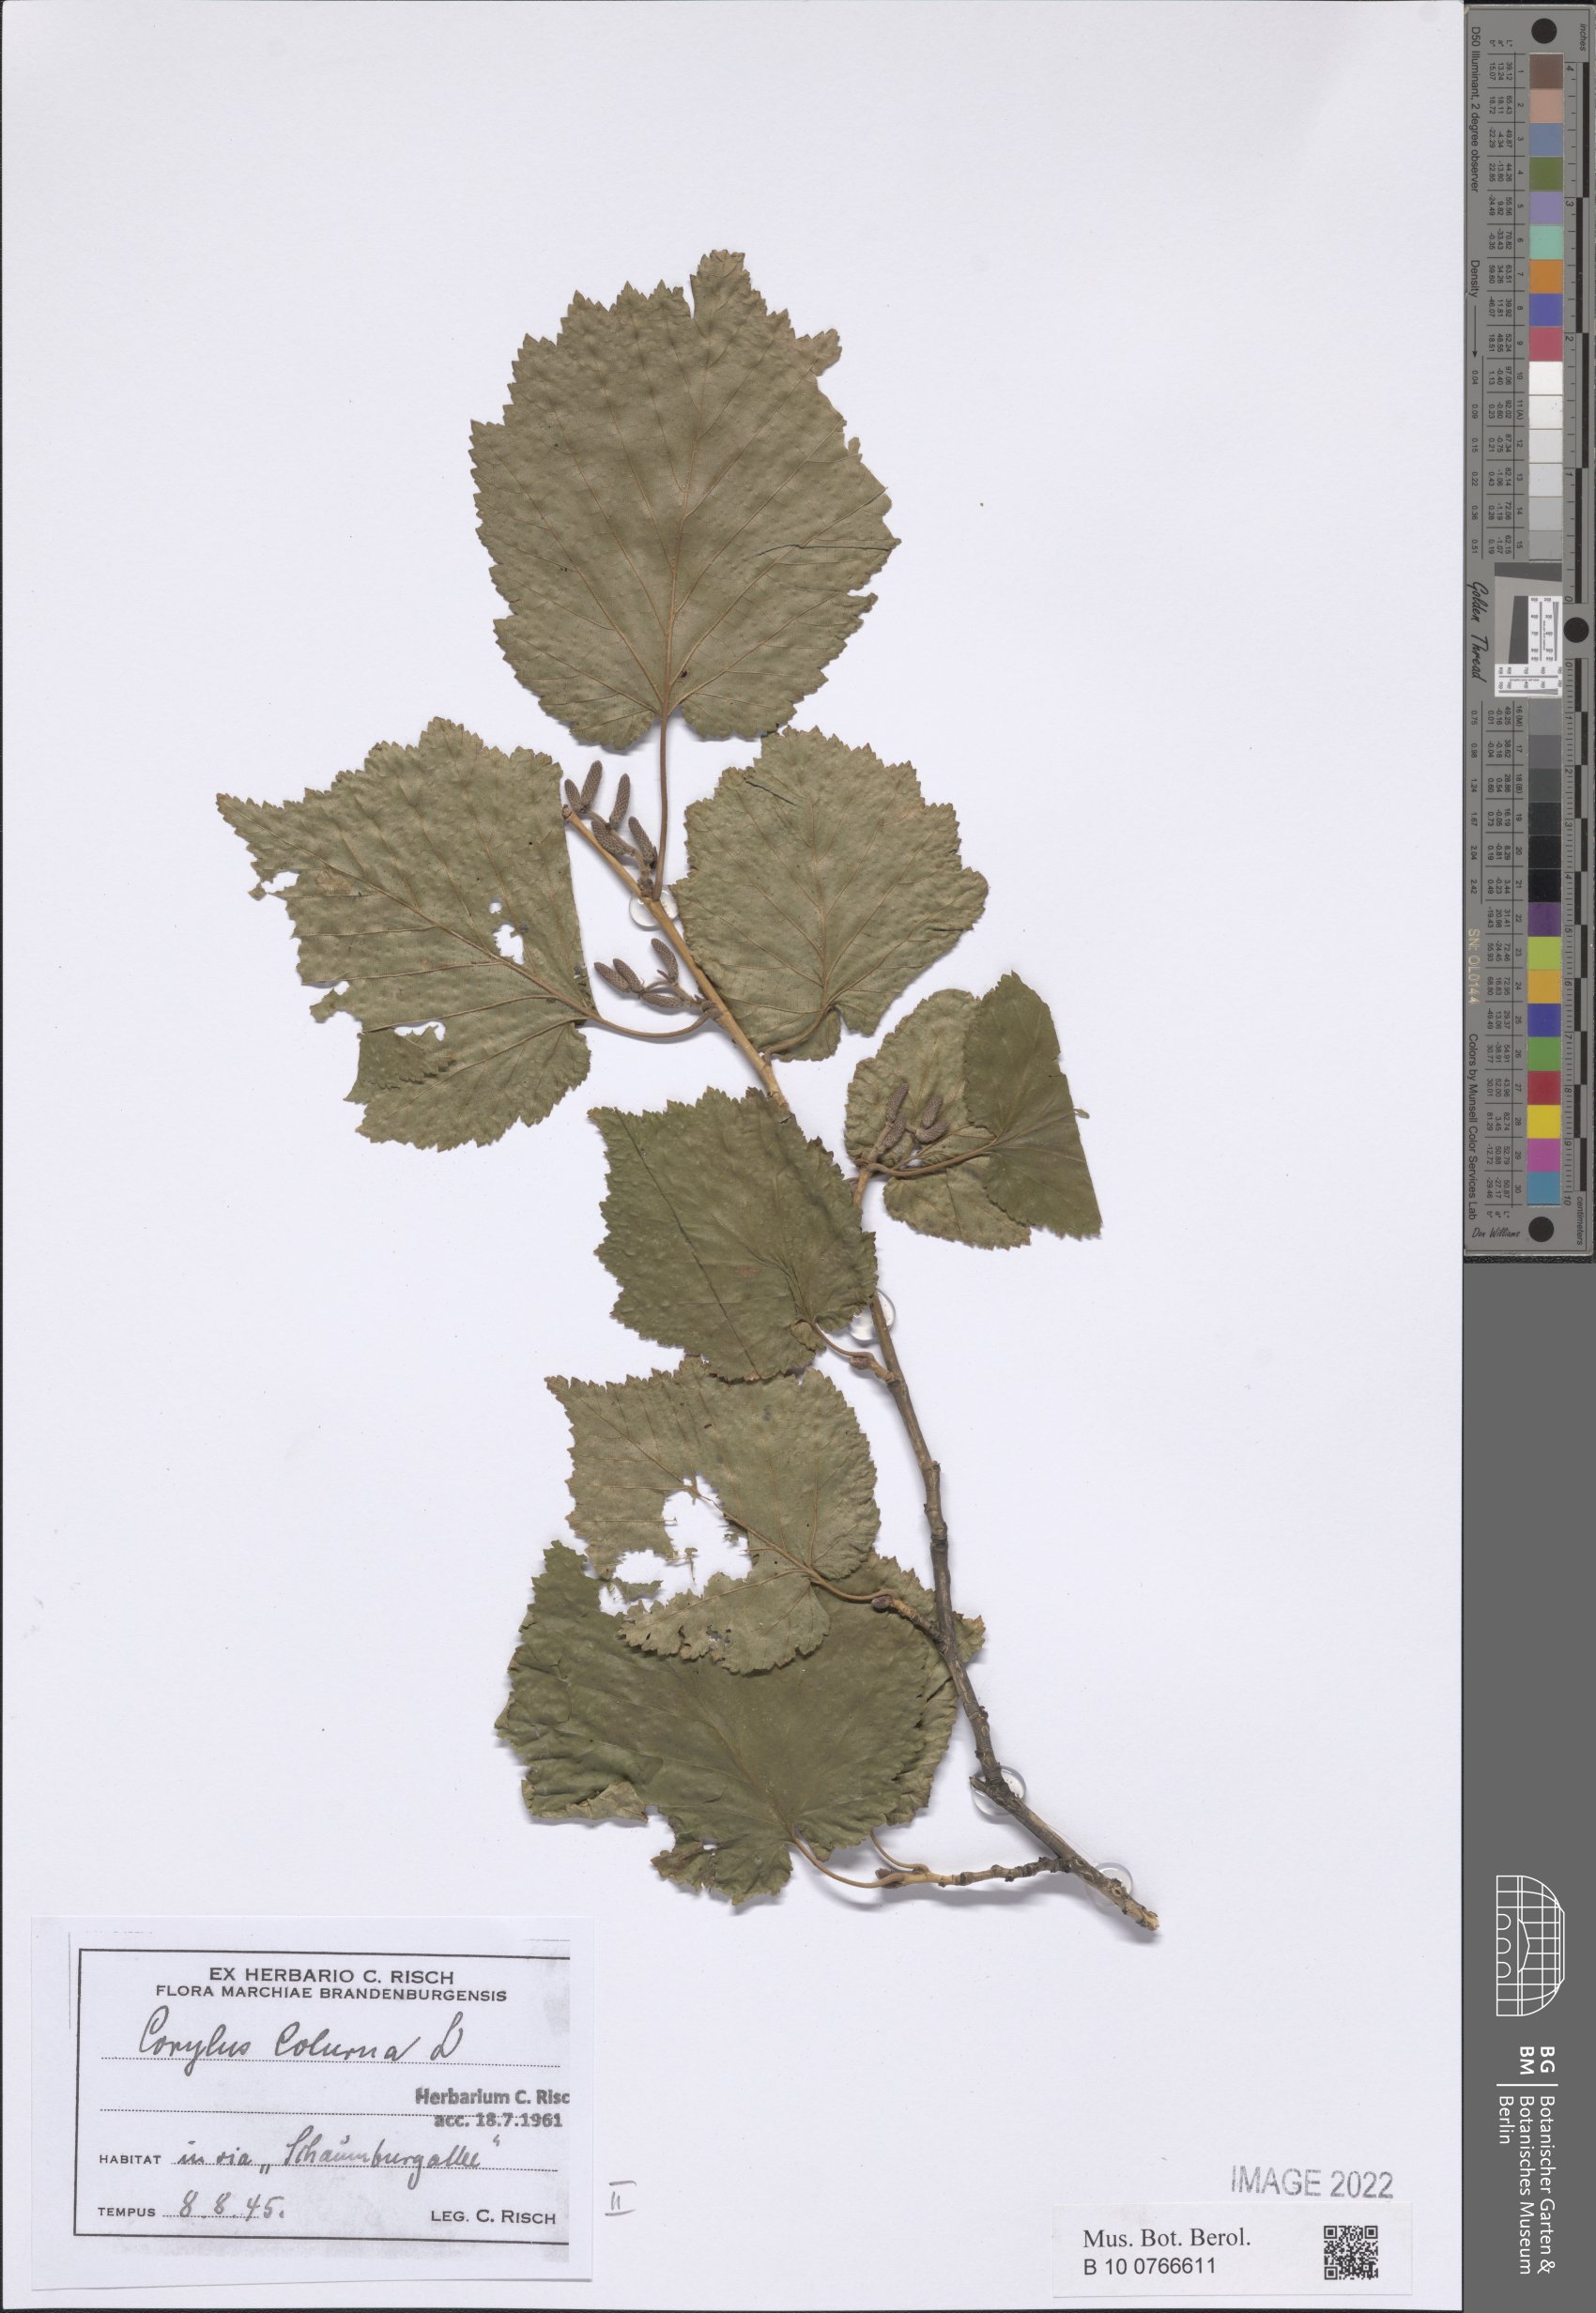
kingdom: Plantae
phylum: Tracheophyta
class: Magnoliopsida
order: Fagales
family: Betulaceae
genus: Corylus
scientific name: Corylus colurna
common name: Turkish hazel
